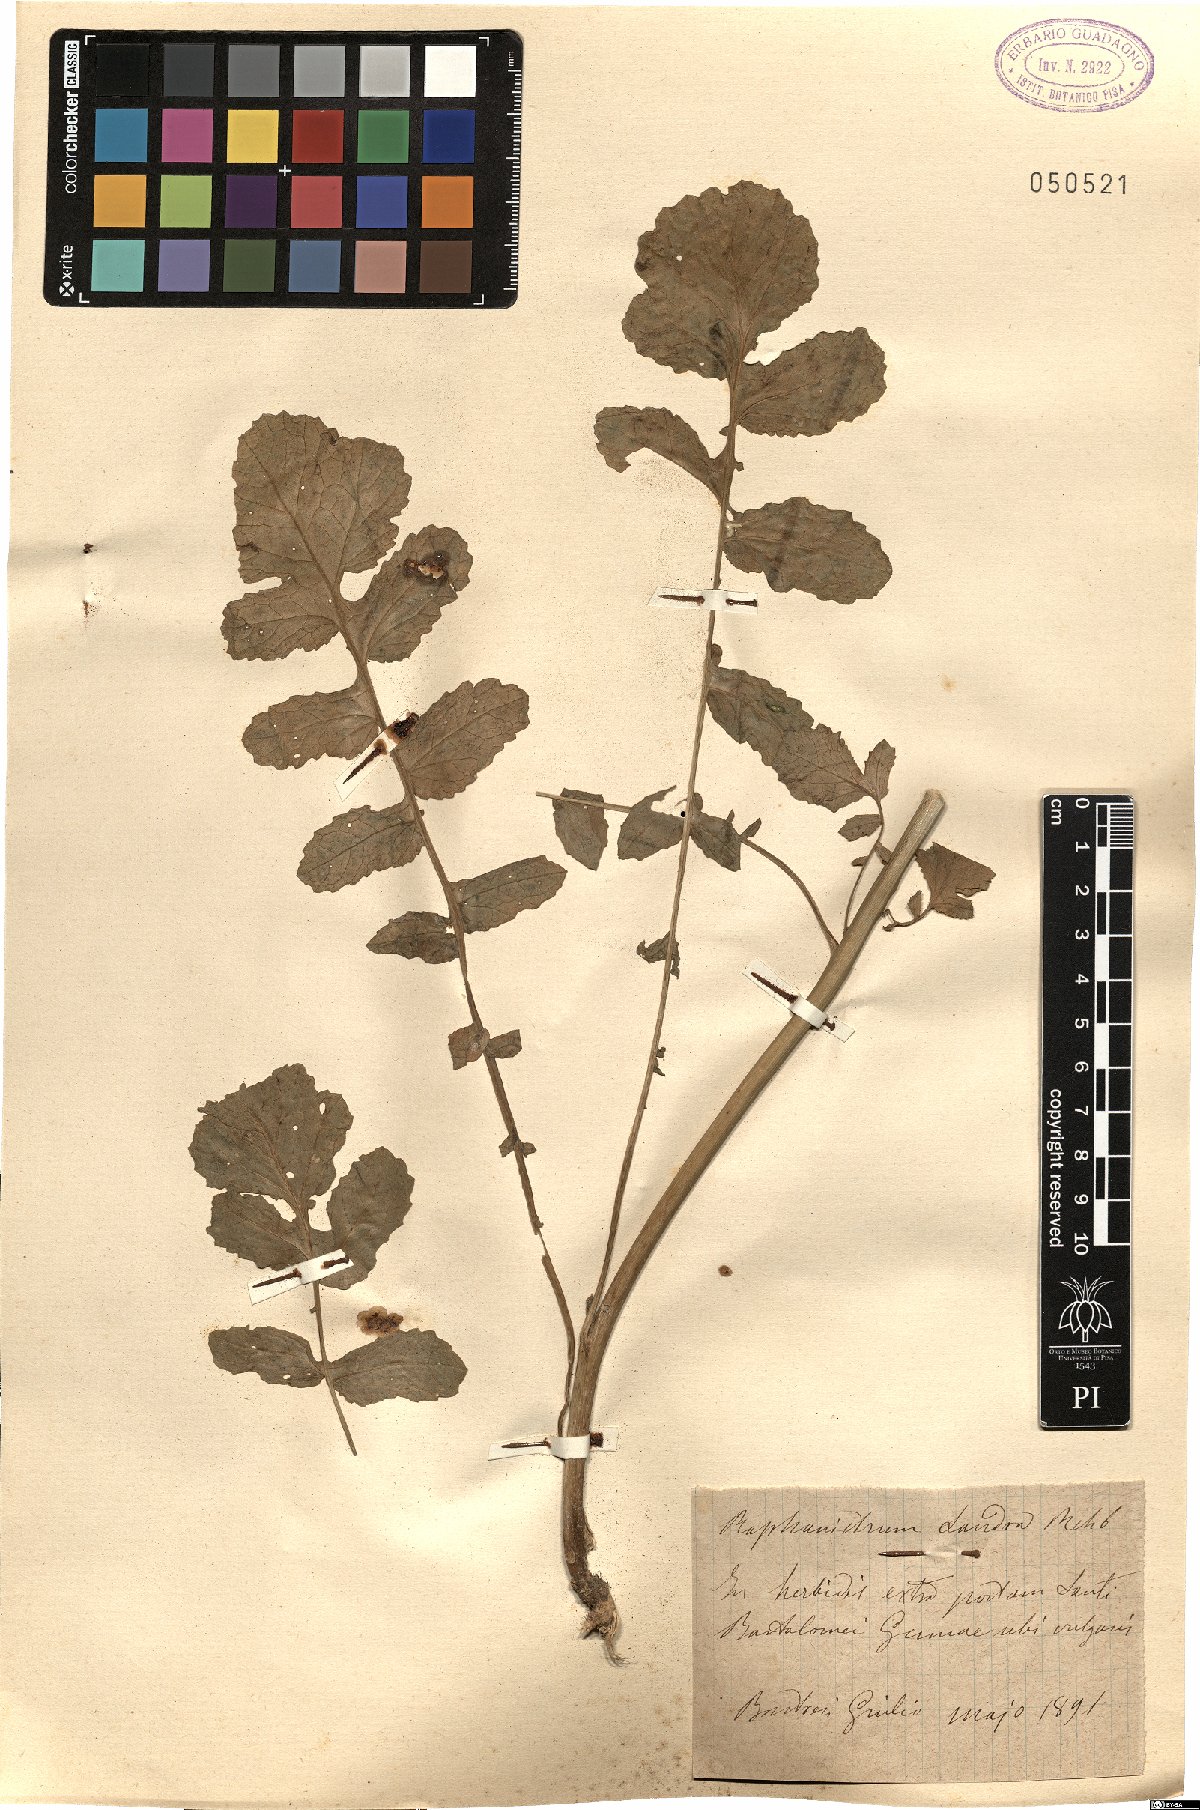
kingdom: Plantae
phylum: Tracheophyta
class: Magnoliopsida
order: Brassicales
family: Brassicaceae
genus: Raphanus
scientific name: Raphanus raphanistrum
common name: Wild radish
